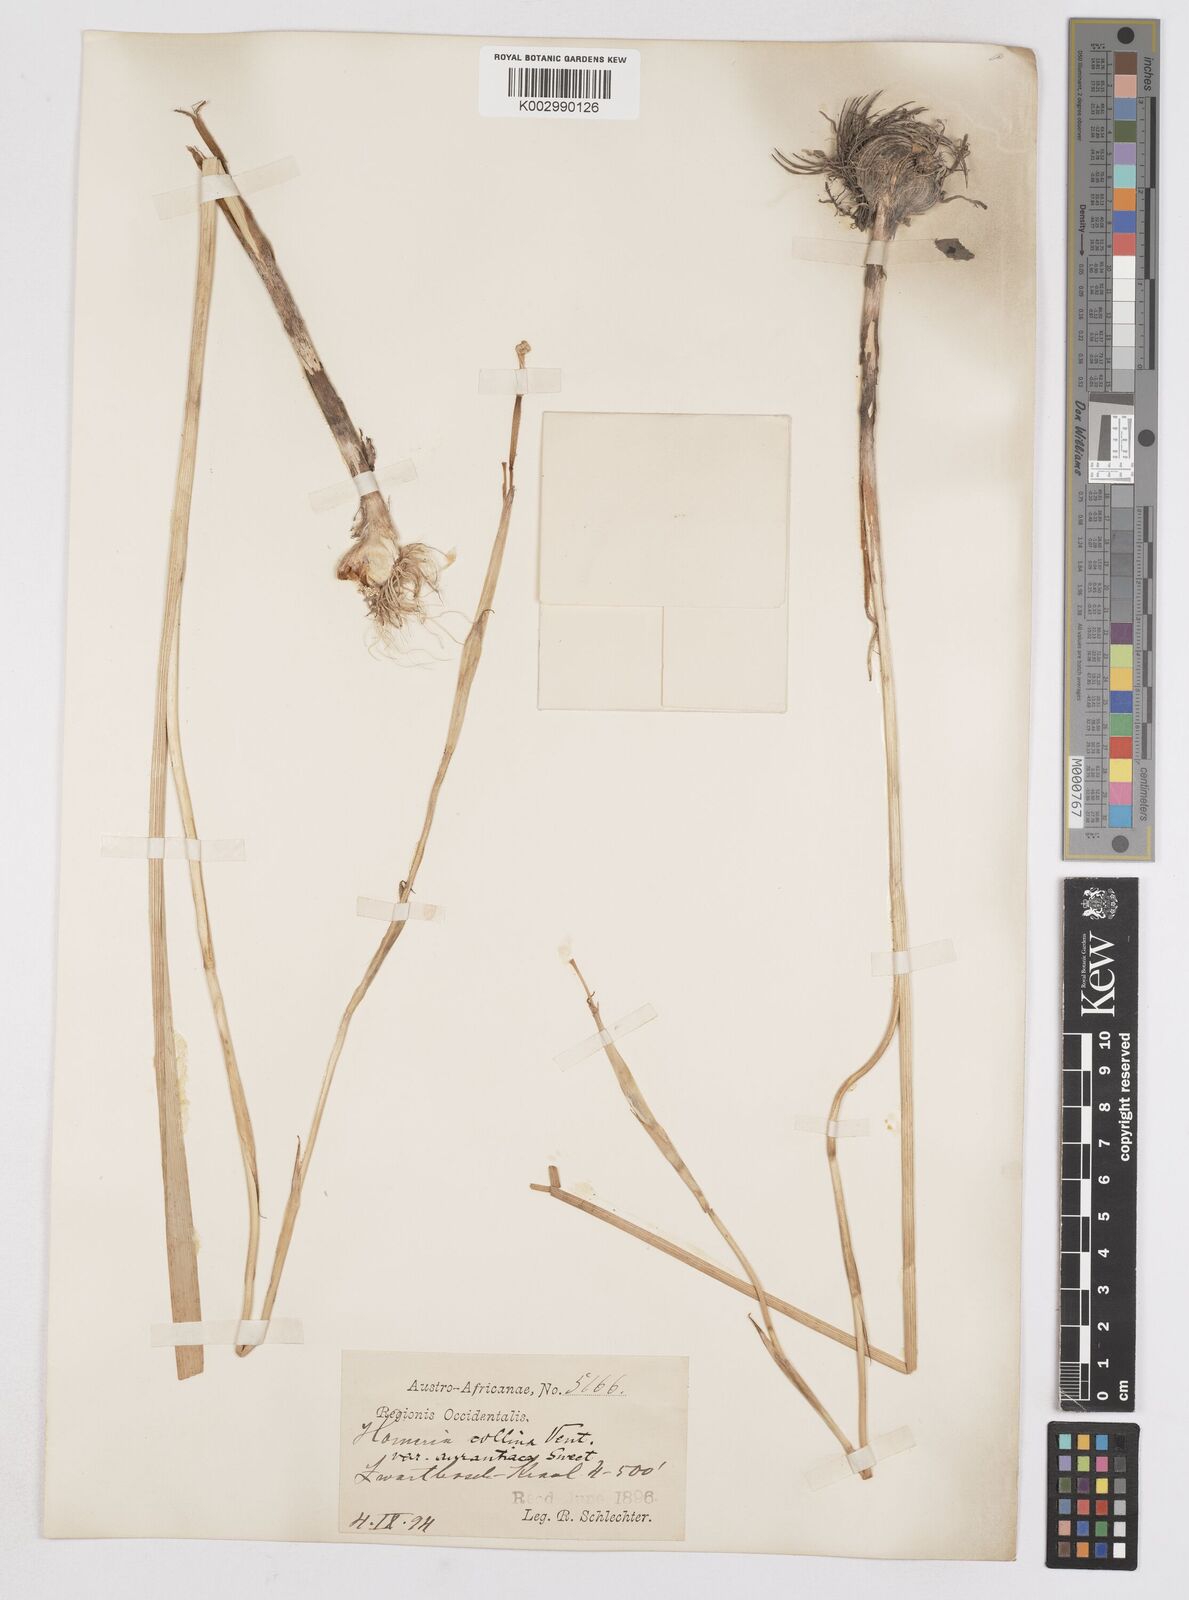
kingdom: Plantae
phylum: Tracheophyta
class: Liliopsida
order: Asparagales
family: Iridaceae
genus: Moraea
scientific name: Moraea flaccida
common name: One-leaf cape-tulip
